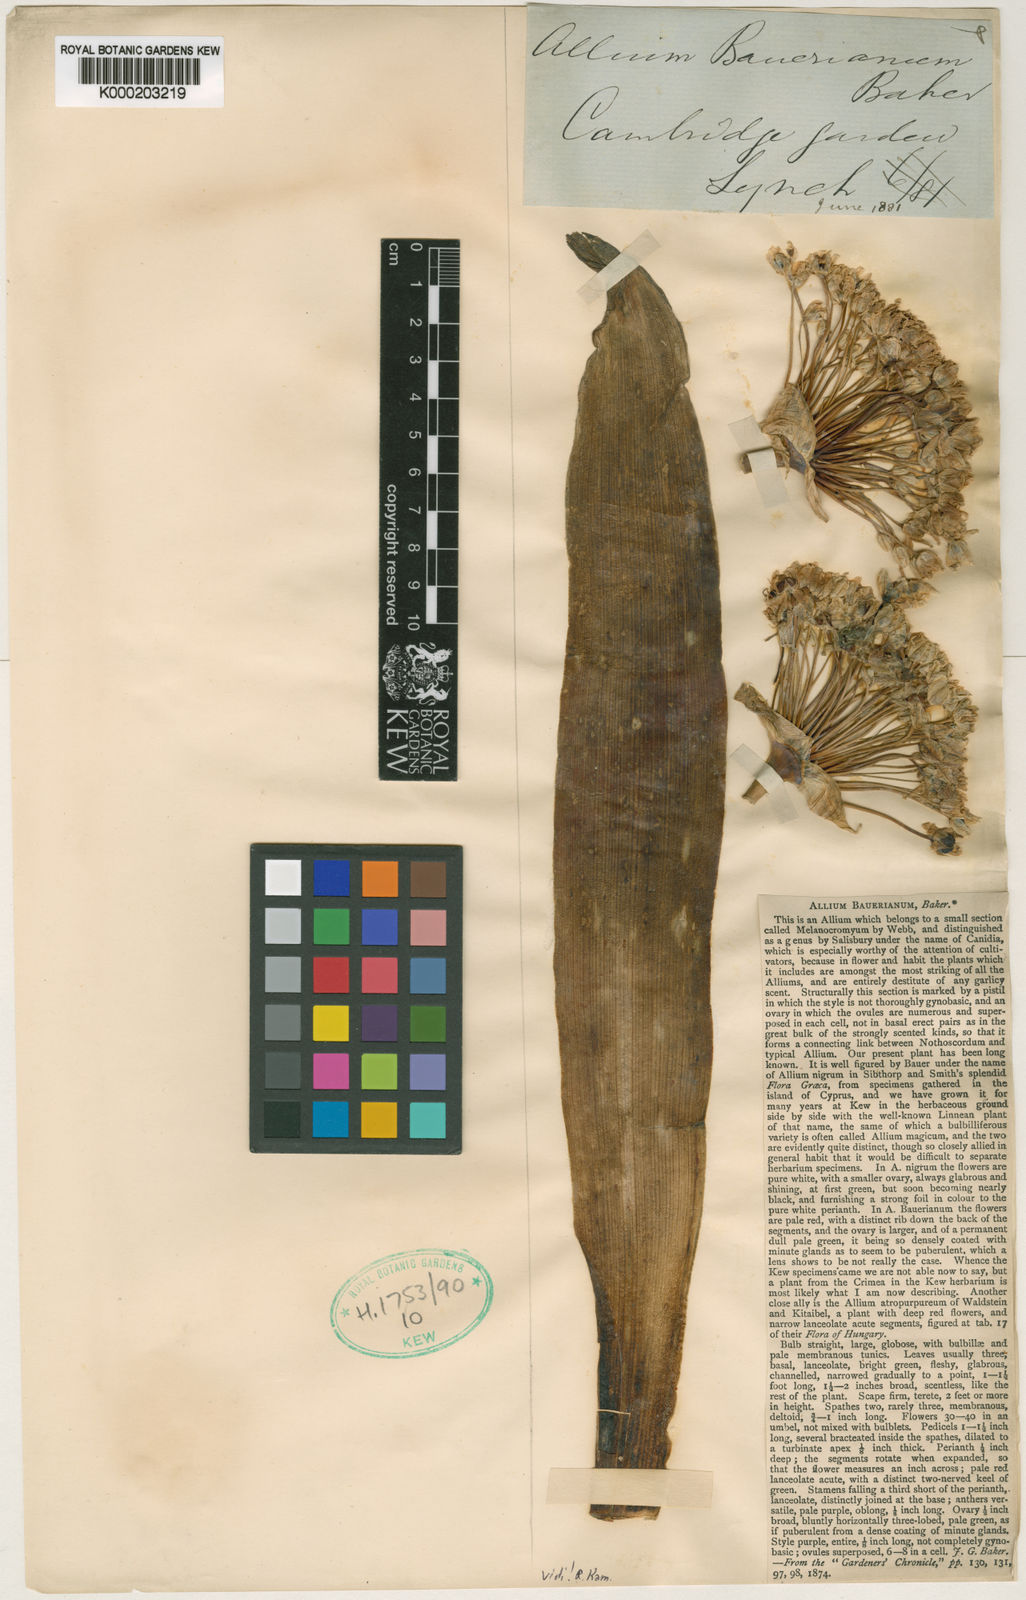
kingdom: Plantae
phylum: Tracheophyta
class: Liliopsida
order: Asparagales
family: Amaryllidaceae
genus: Allium
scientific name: Allium nigrum
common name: Black garlic
